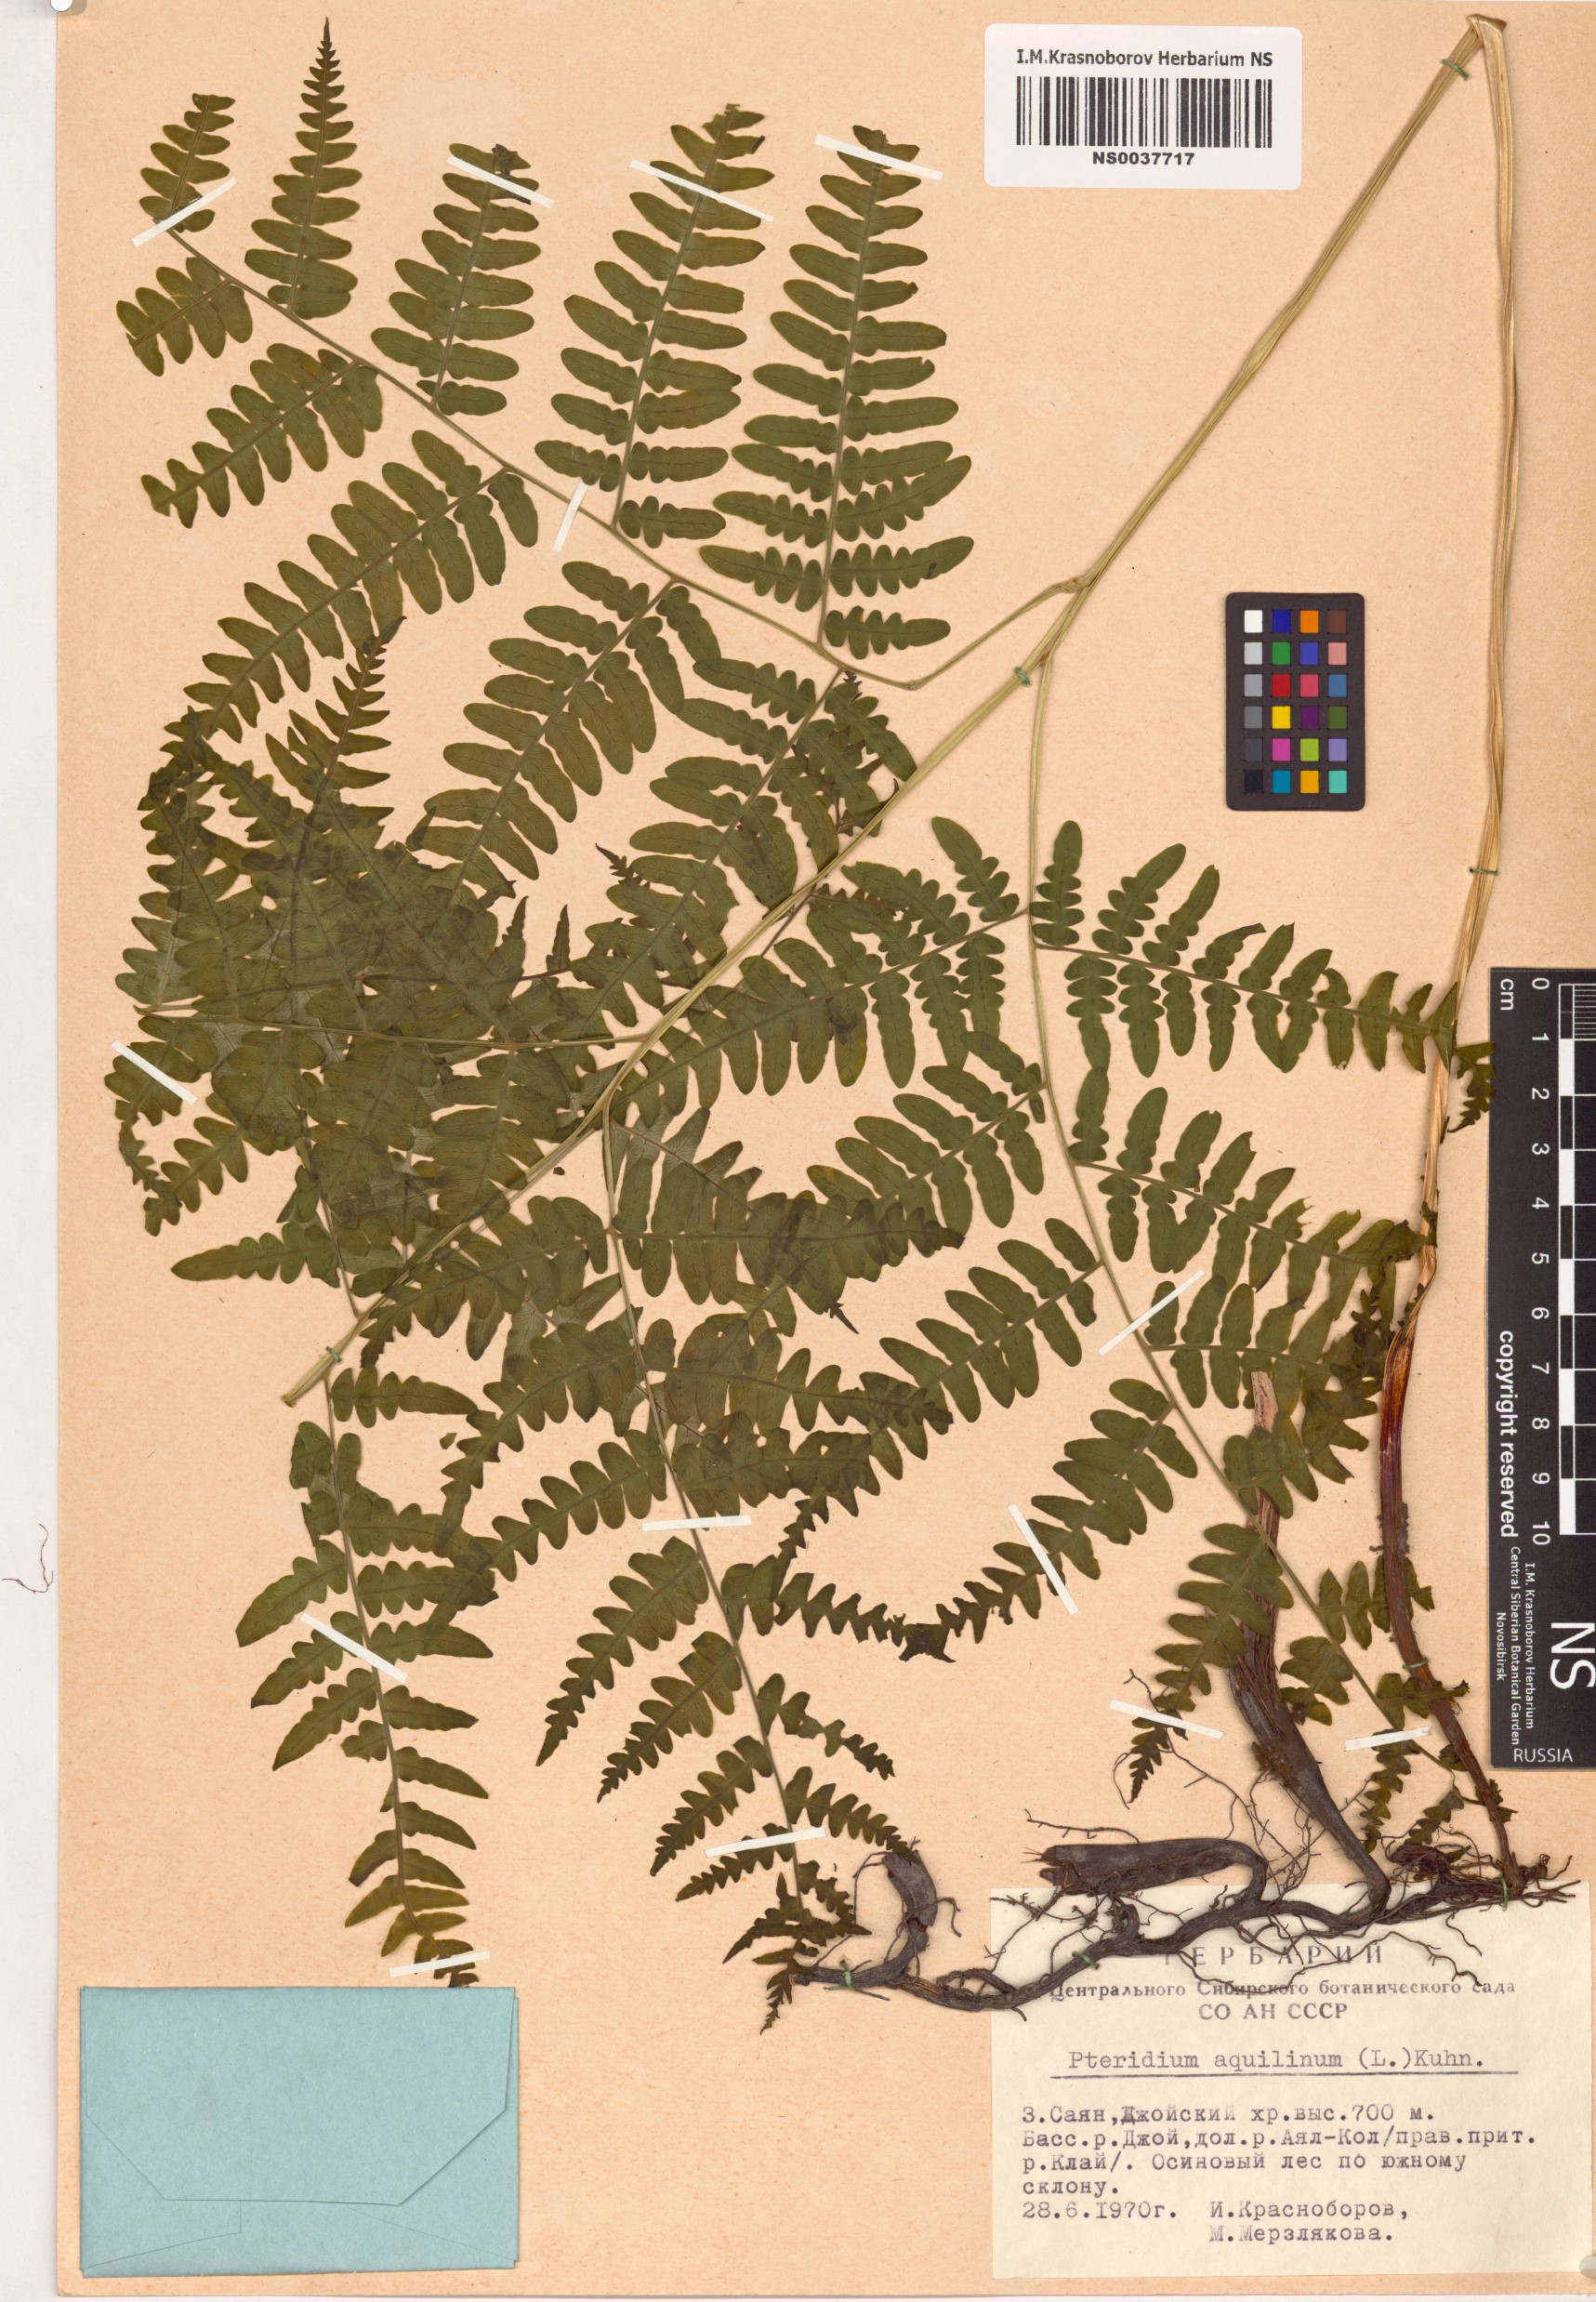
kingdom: Plantae
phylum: Tracheophyta
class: Polypodiopsida
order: Polypodiales
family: Dennstaedtiaceae
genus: Pteridium
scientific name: Pteridium aquilinum
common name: Bracken
